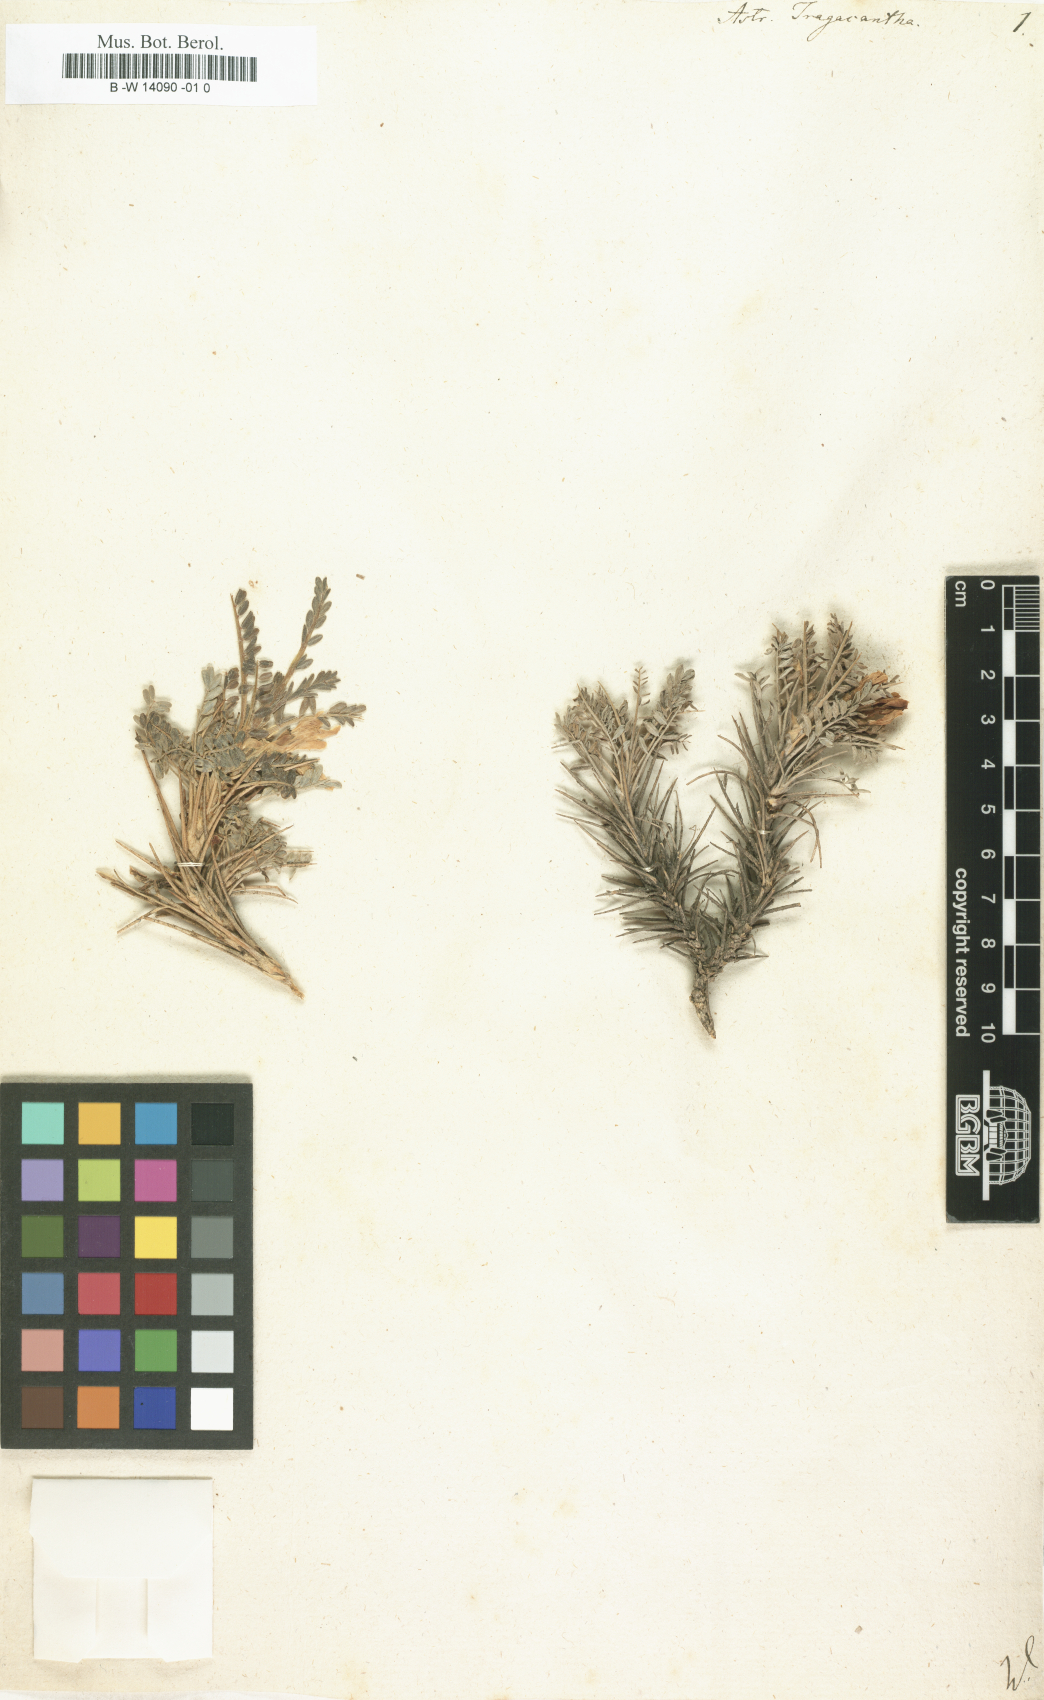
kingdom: Plantae
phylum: Tracheophyta
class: Magnoliopsida
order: Fabales
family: Fabaceae
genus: Astragalus
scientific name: Astragalus tragacantha
